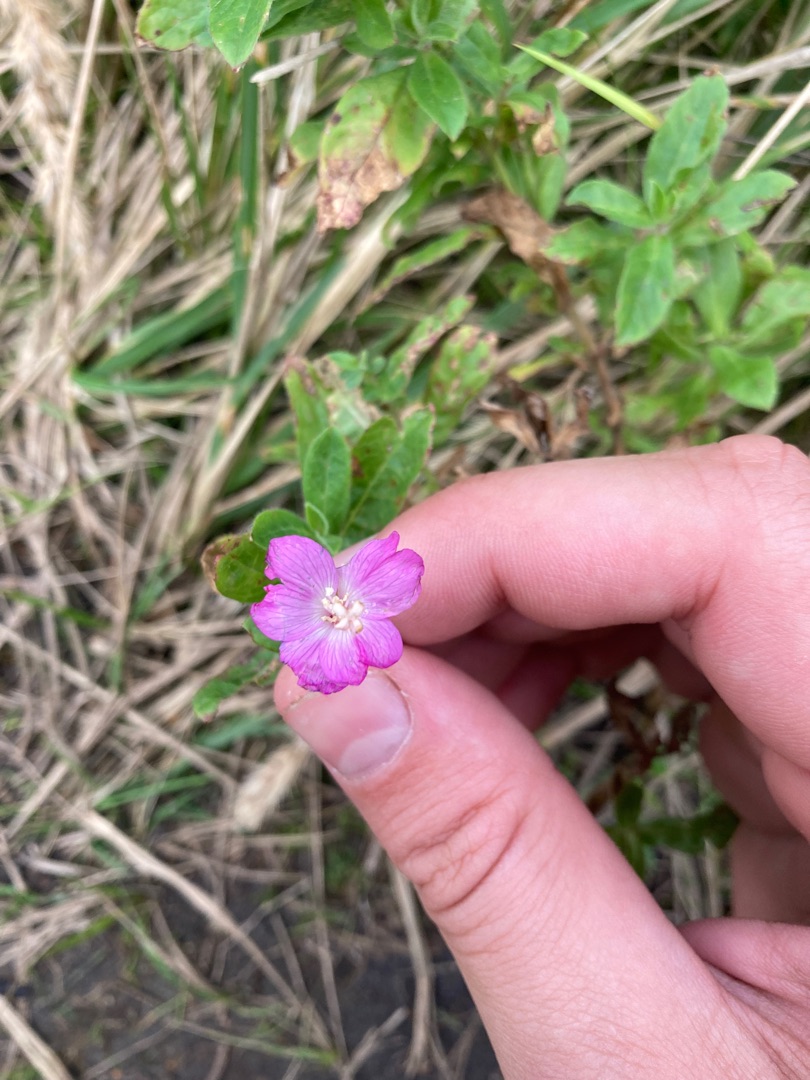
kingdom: Plantae
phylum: Tracheophyta
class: Magnoliopsida
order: Myrtales
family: Onagraceae
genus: Epilobium
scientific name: Epilobium hirsutum
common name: Lådden dueurt
